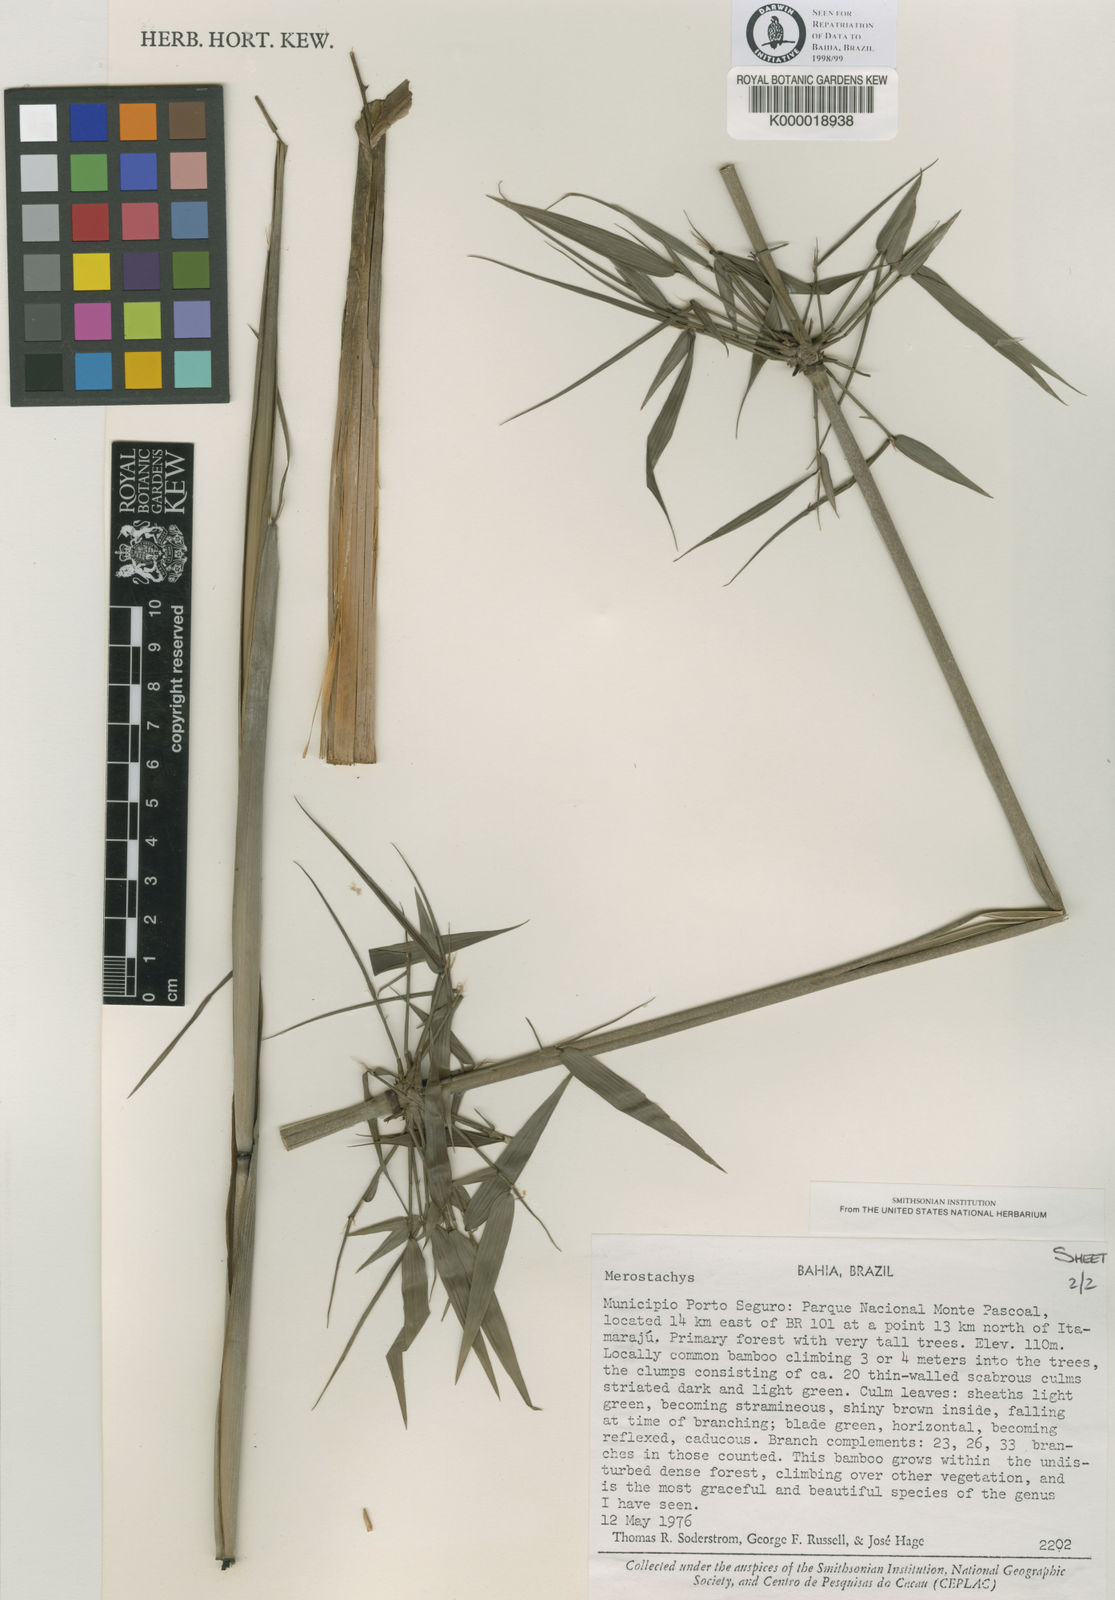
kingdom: Plantae
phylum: Tracheophyta
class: Liliopsida
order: Poales
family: Poaceae
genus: Merostachys
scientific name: Merostachys bifurcata
